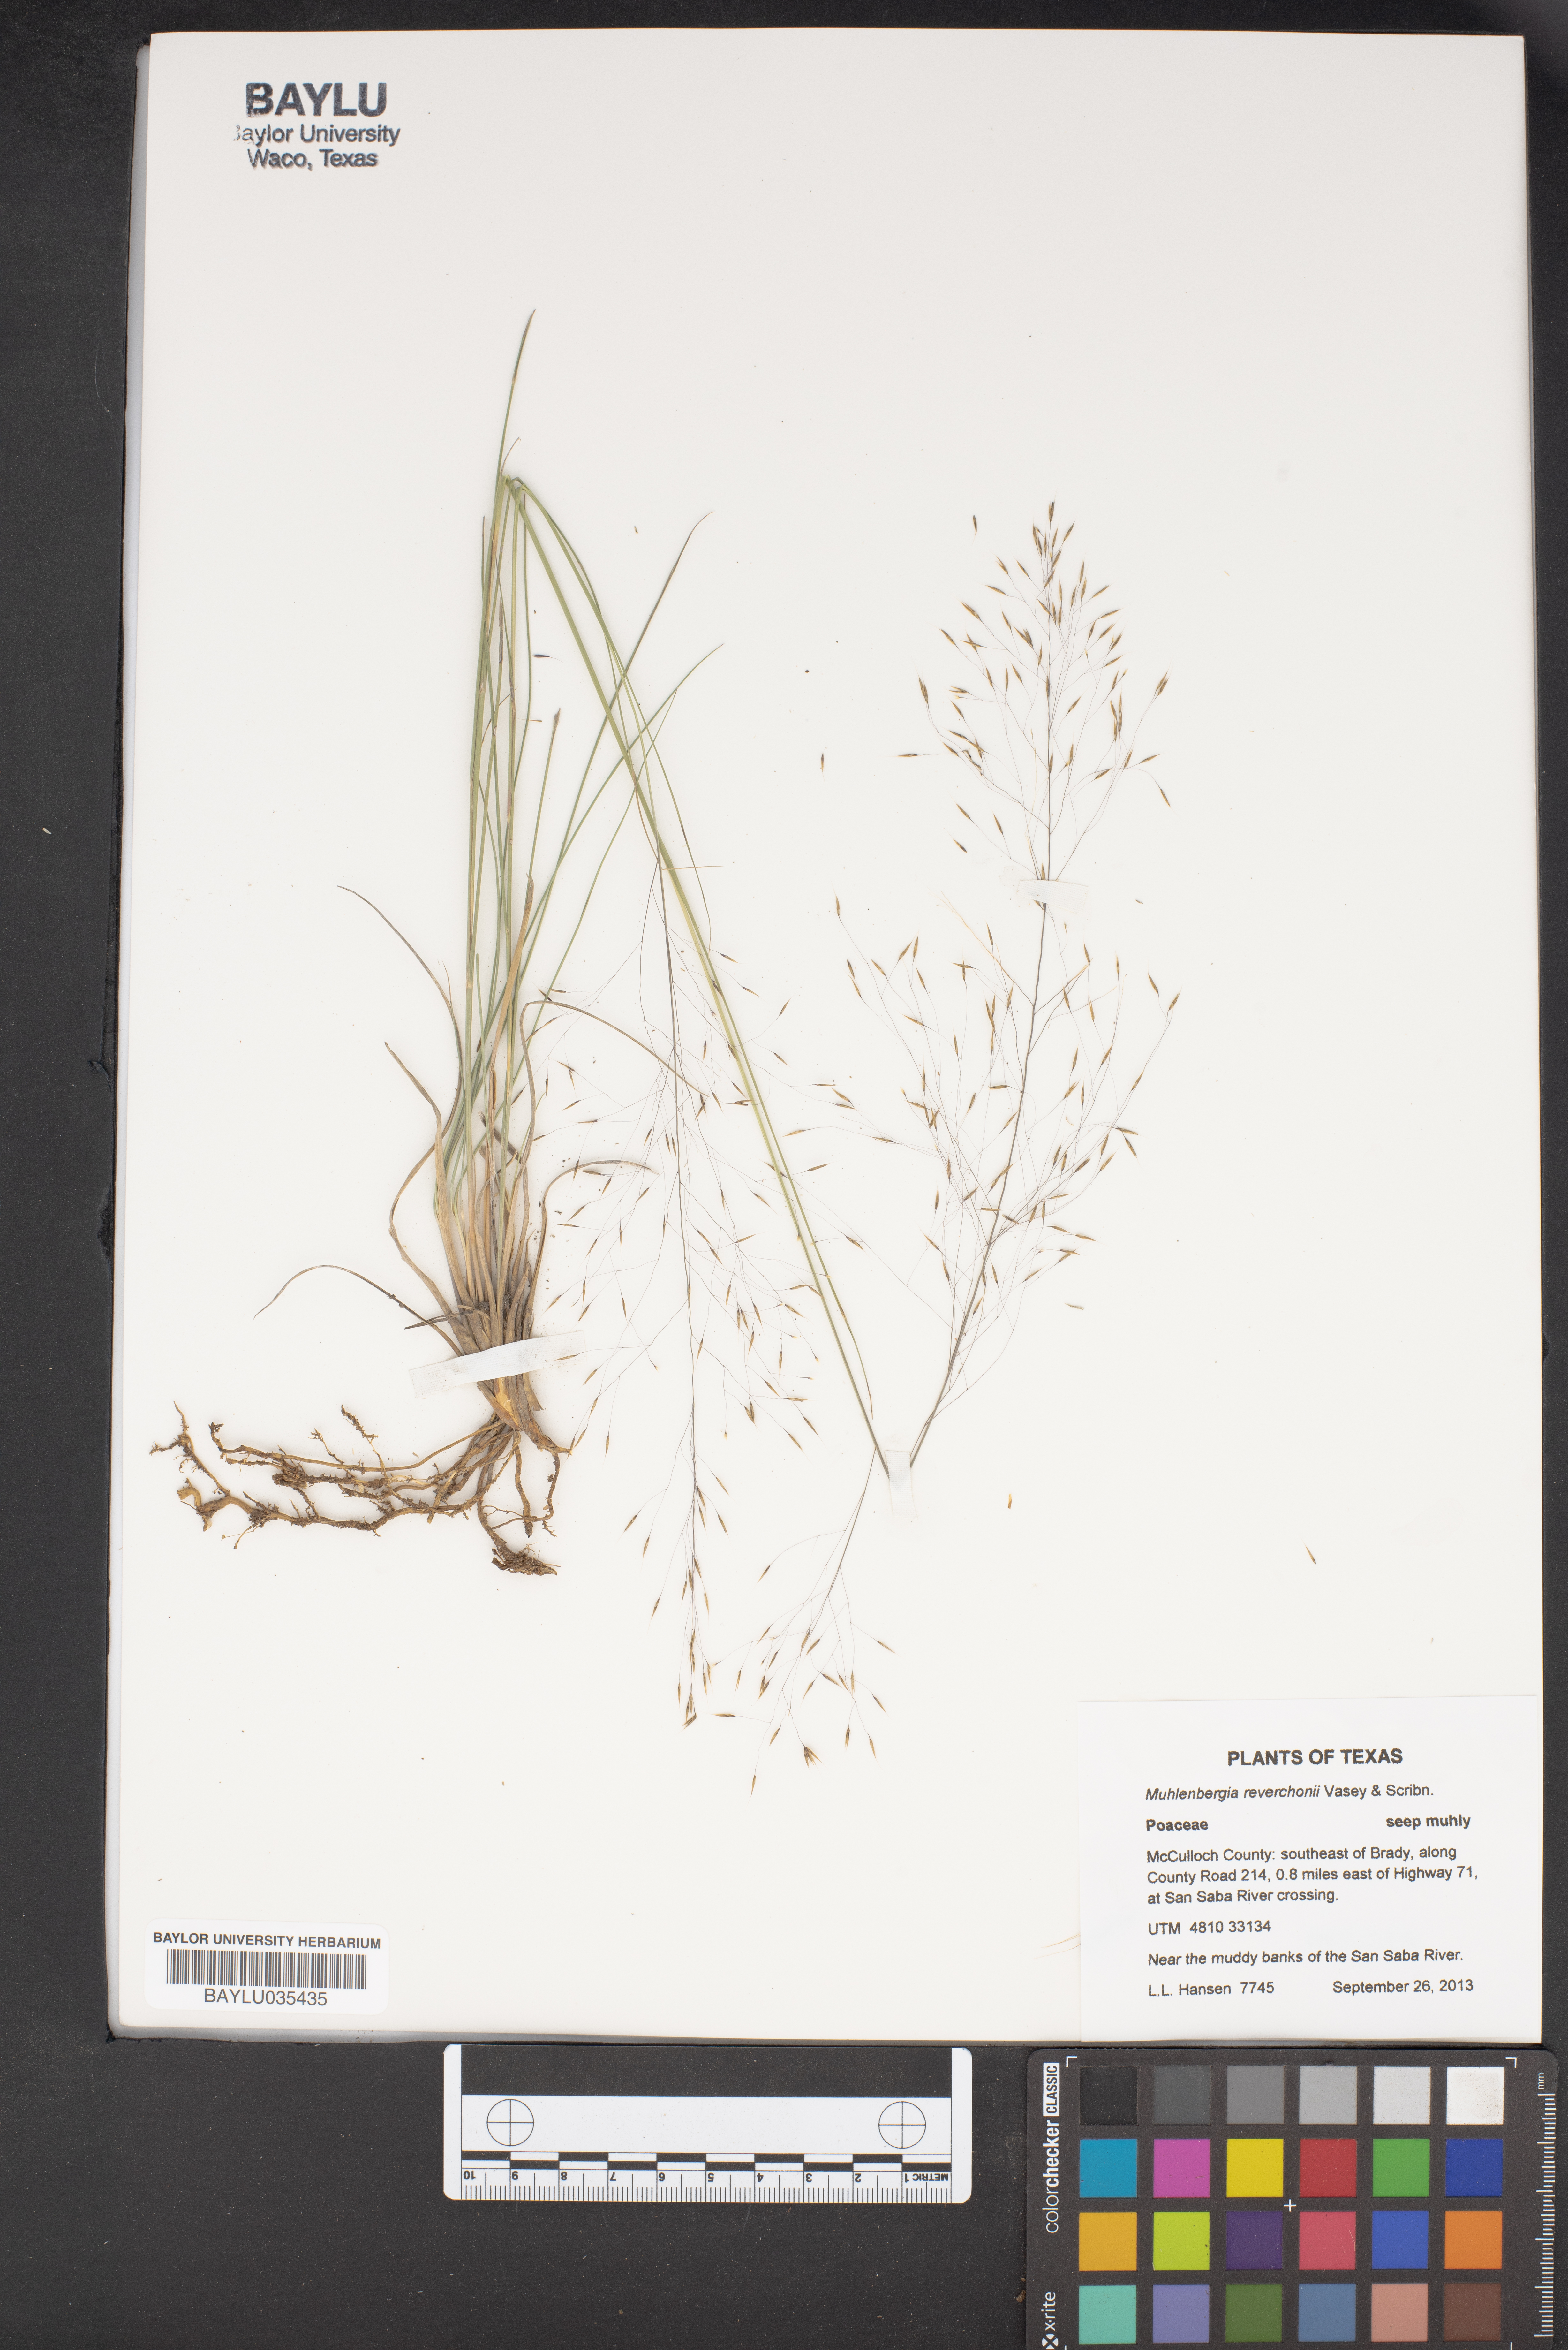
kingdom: Plantae
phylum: Tracheophyta
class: Liliopsida
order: Poales
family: Poaceae
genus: Muhlenbergia
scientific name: Muhlenbergia reverchonii
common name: Seep muhly
